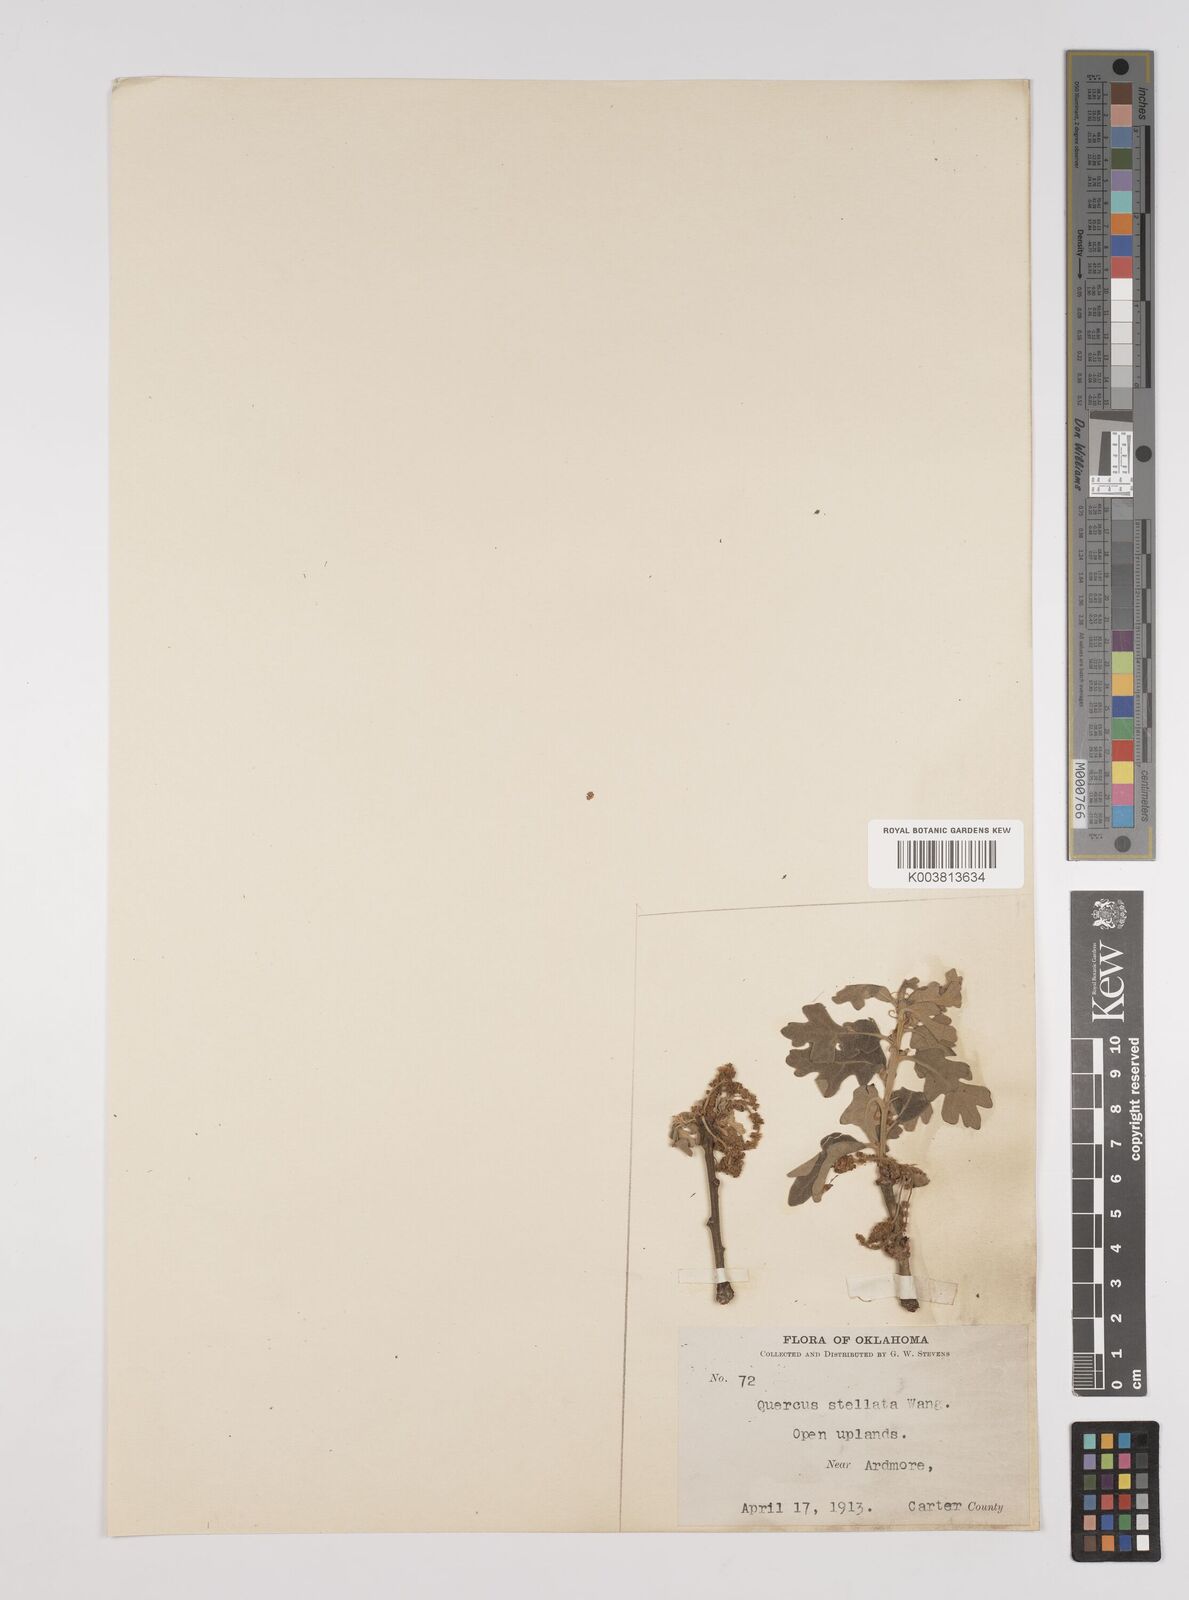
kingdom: Plantae
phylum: Tracheophyta
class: Magnoliopsida
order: Fagales
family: Fagaceae
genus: Quercus
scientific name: Quercus stellata
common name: Post oak
